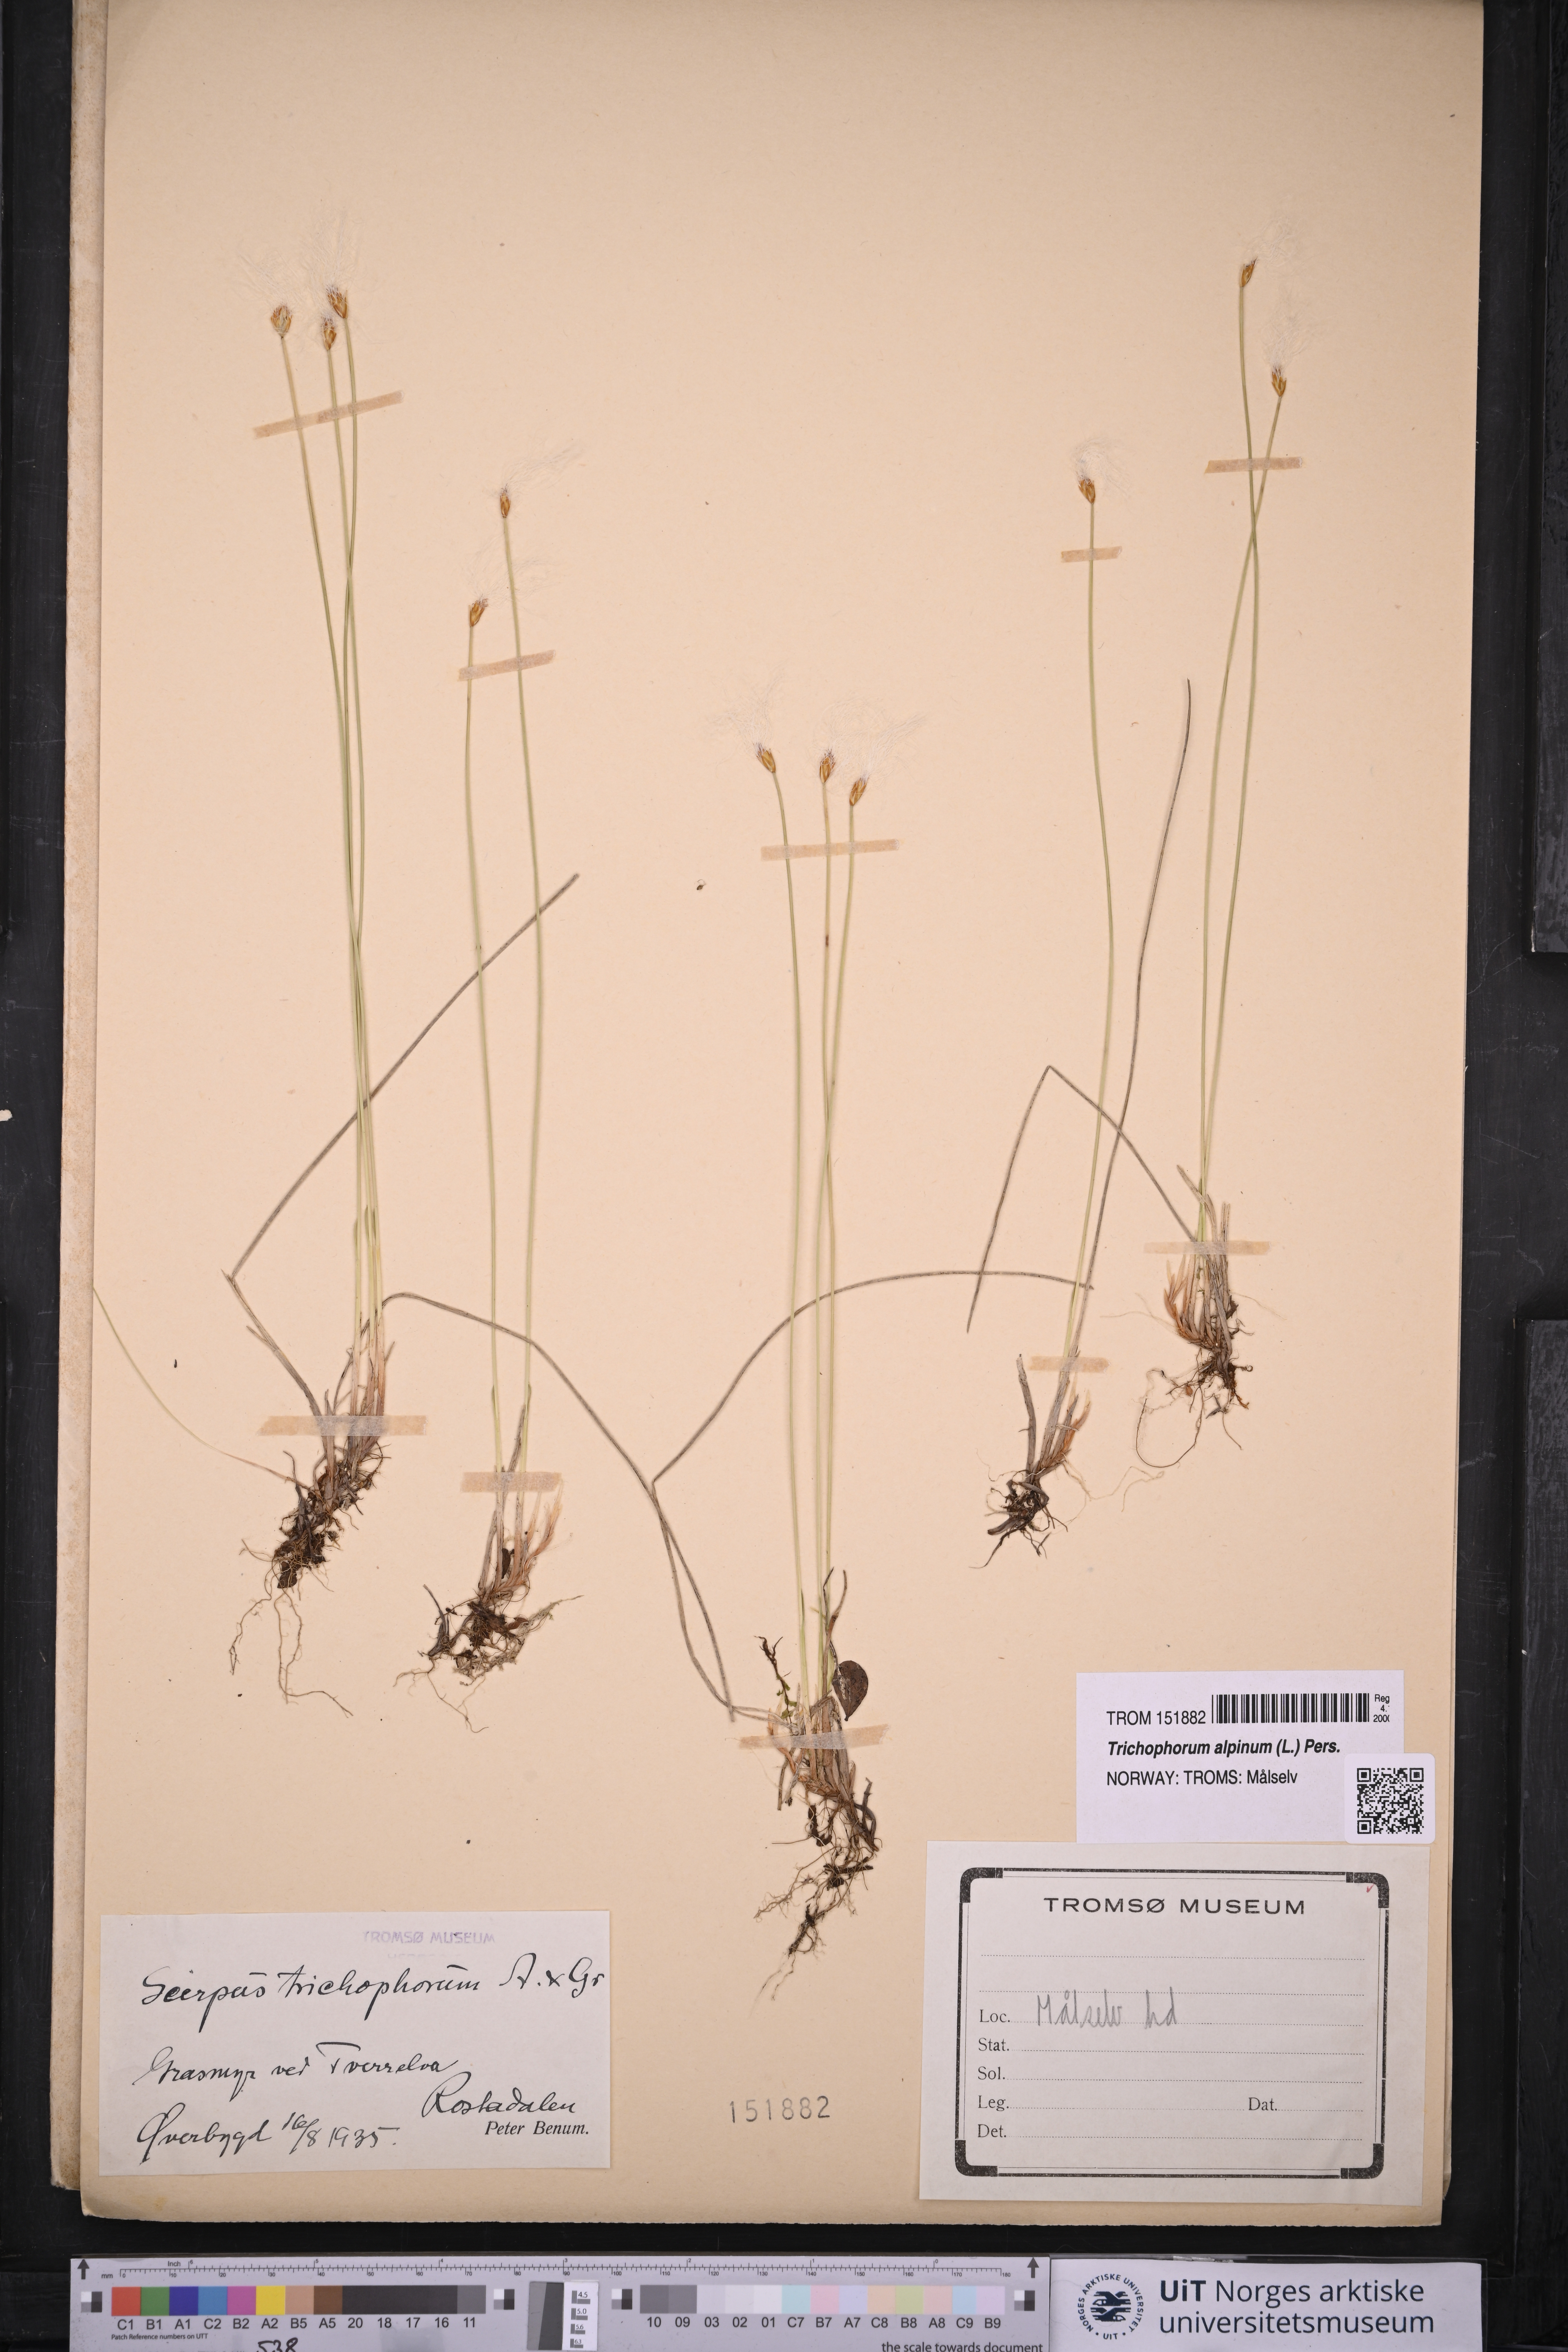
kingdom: Plantae
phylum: Tracheophyta
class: Liliopsida
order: Poales
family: Cyperaceae
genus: Trichophorum
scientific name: Trichophorum alpinum
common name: Alpine bulrush
